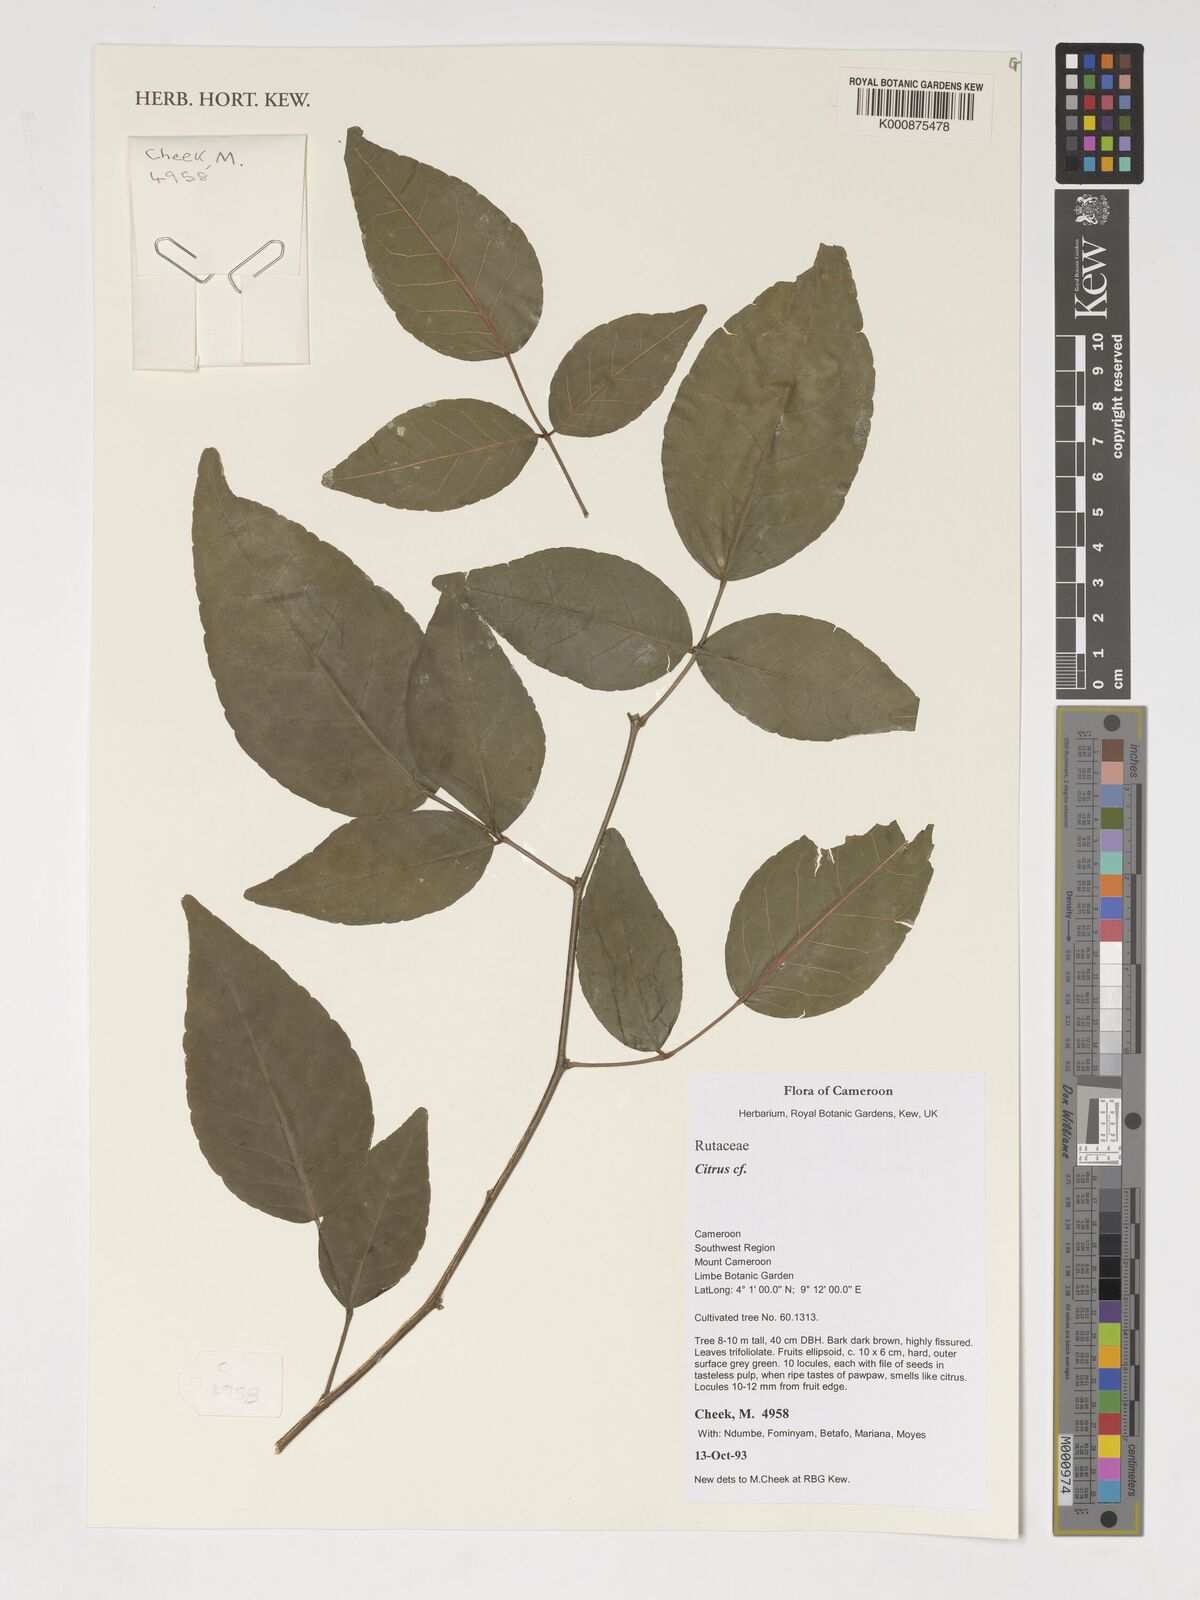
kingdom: Plantae
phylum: Tracheophyta
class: Magnoliopsida
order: Sapindales
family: Rutaceae
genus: Citrus
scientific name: Citrus
